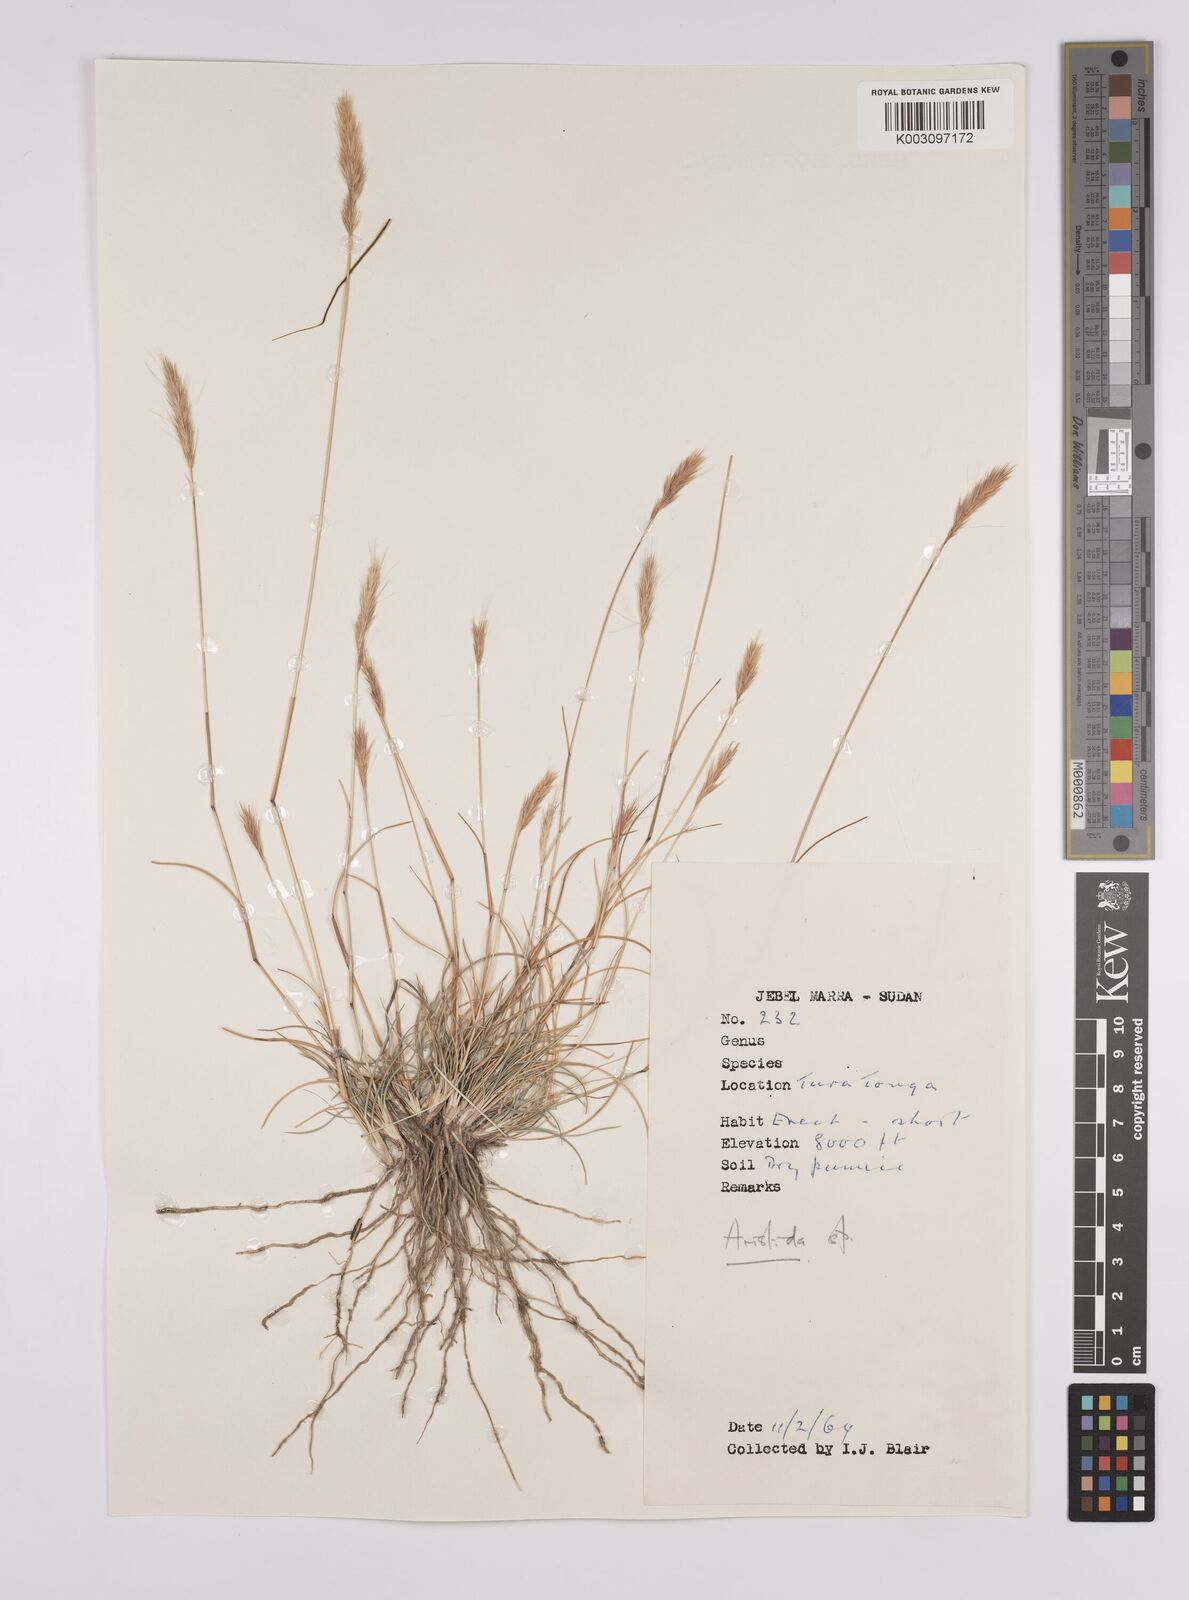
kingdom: Plantae
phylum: Tracheophyta
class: Liliopsida
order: Poales
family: Poaceae
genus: Aristida
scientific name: Aristida congesta
